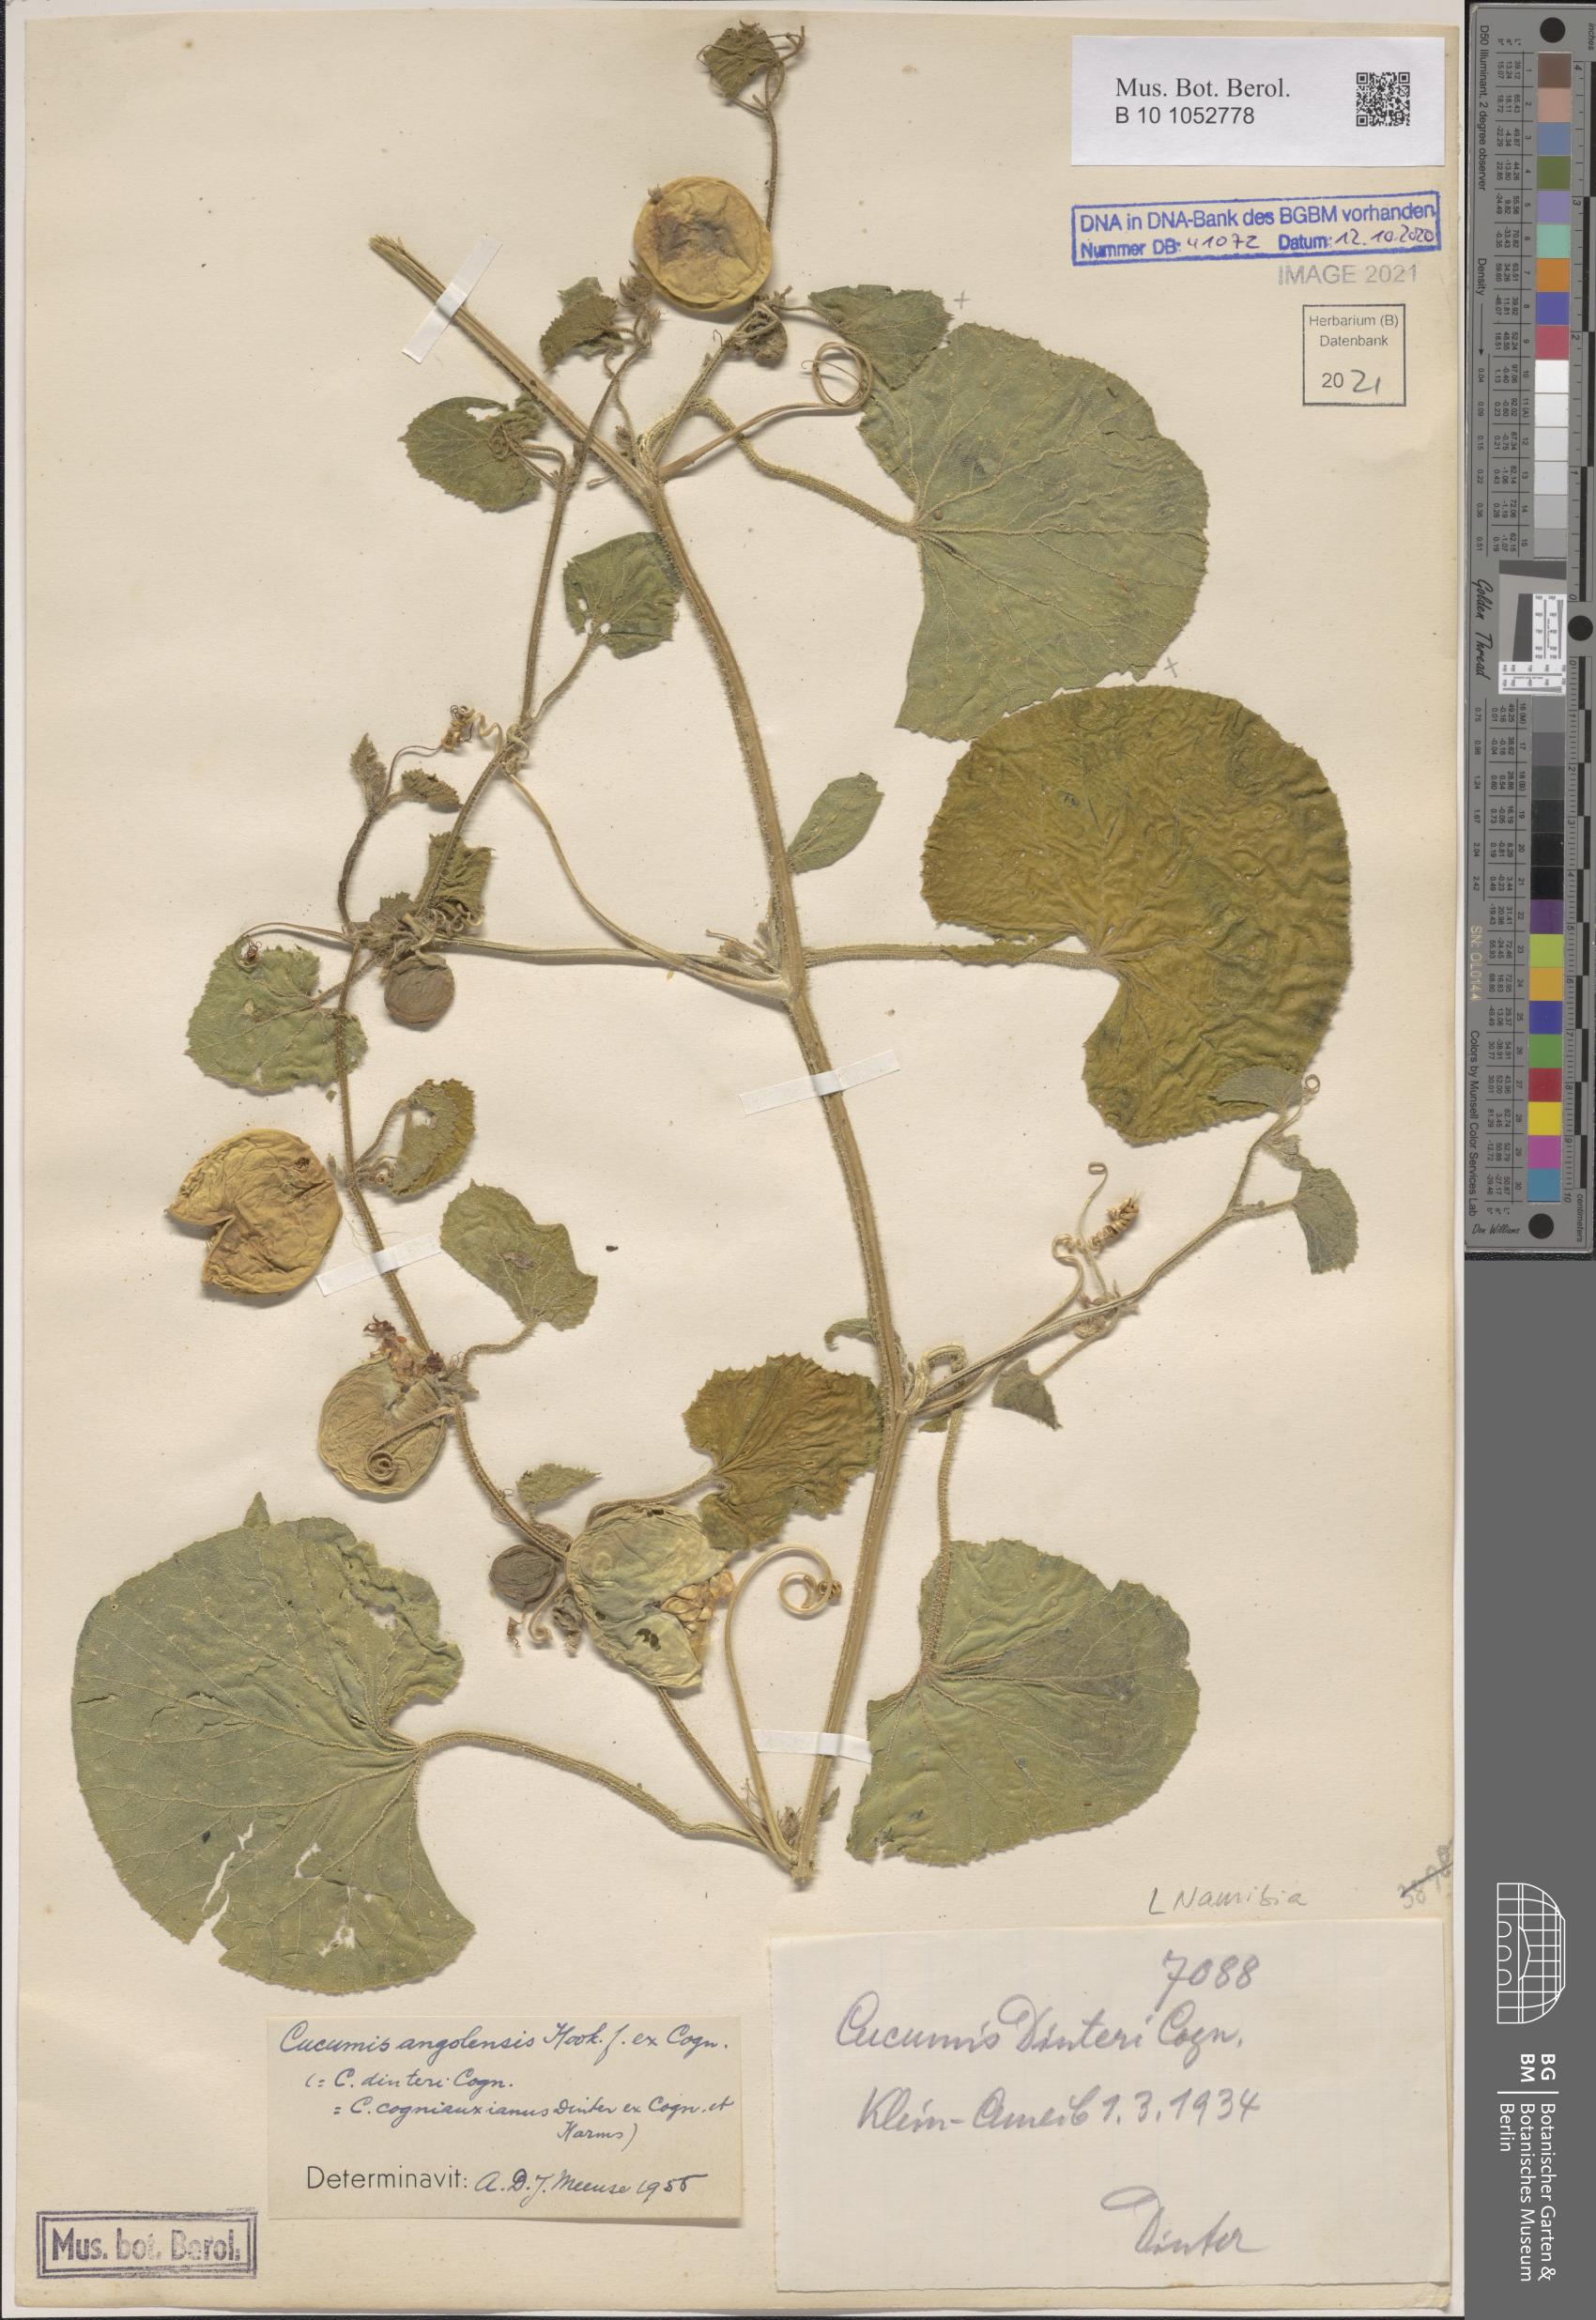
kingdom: Plantae
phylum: Tracheophyta
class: Magnoliopsida
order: Cucurbitales
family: Cucurbitaceae
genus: Cucumis
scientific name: Cucumis sagittatus
